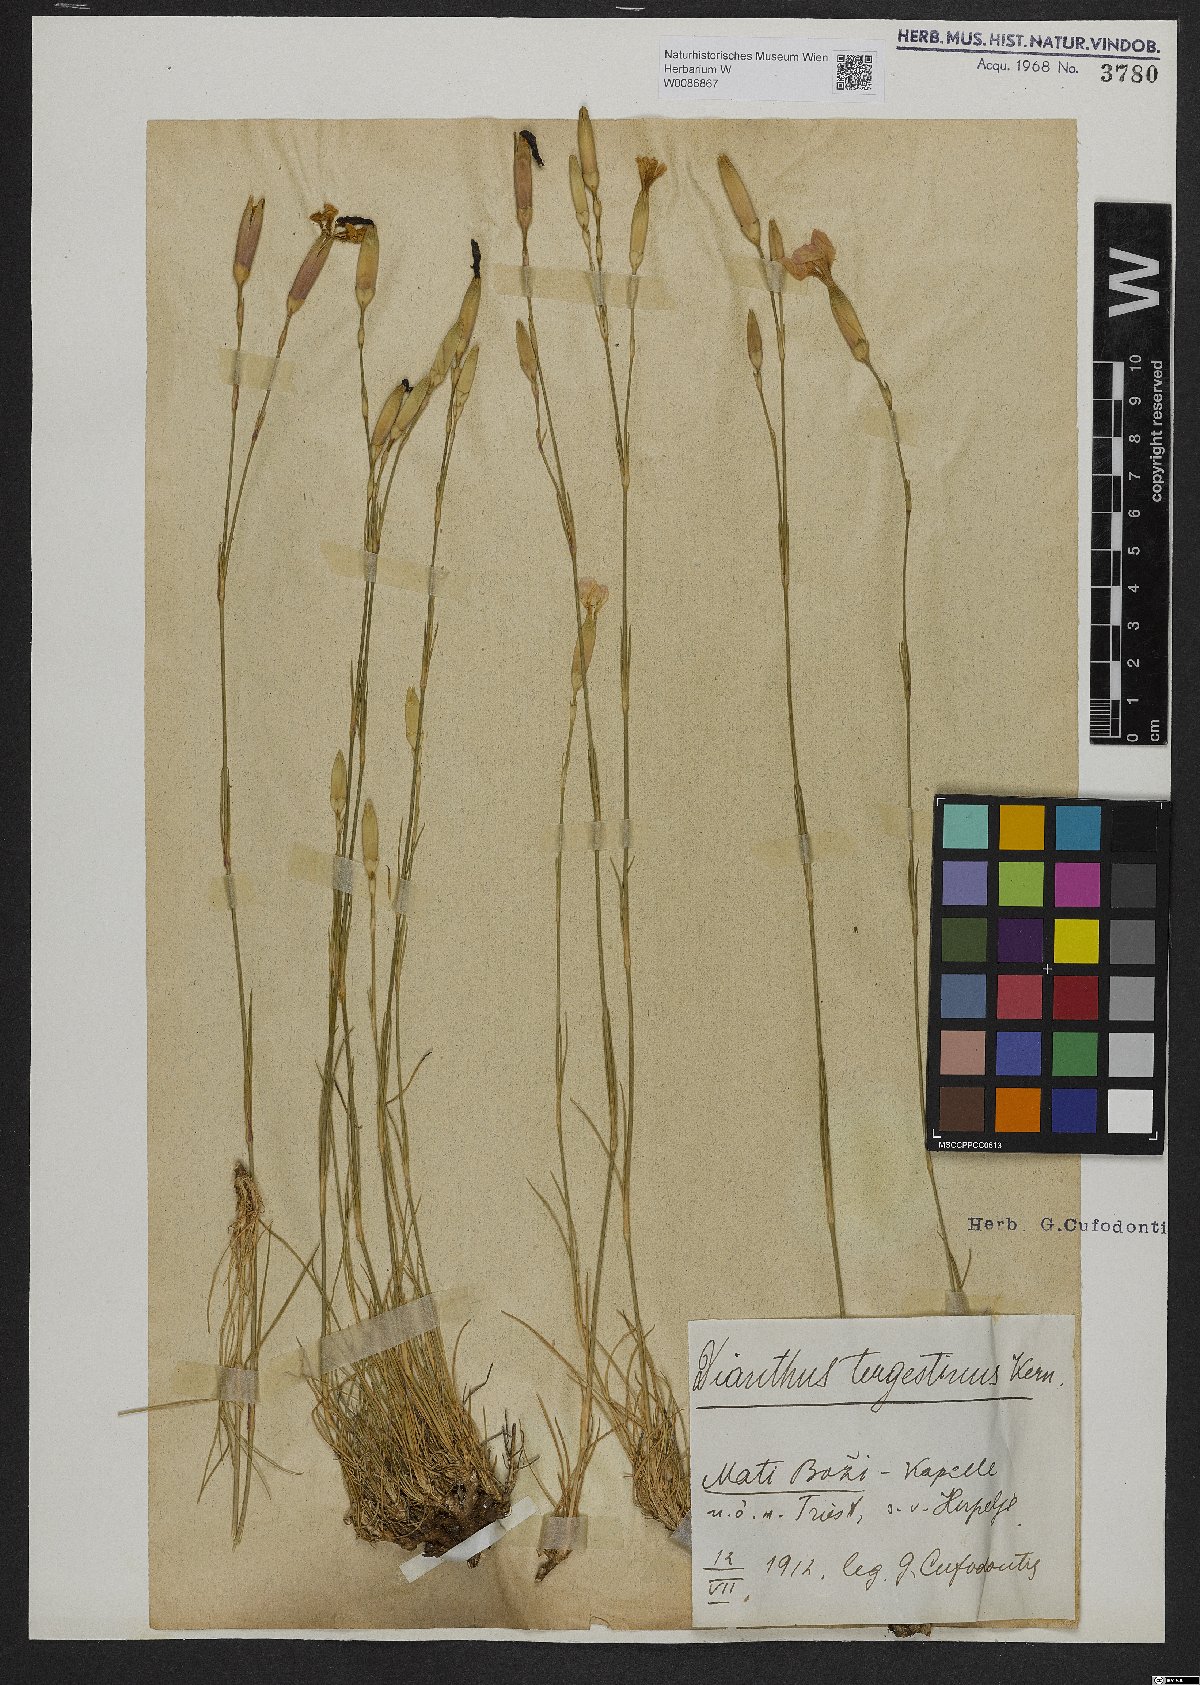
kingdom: Plantae
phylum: Tracheophyta
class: Magnoliopsida
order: Caryophyllales
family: Caryophyllaceae
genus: Dianthus
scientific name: Dianthus sylvestris
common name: Wood pink
